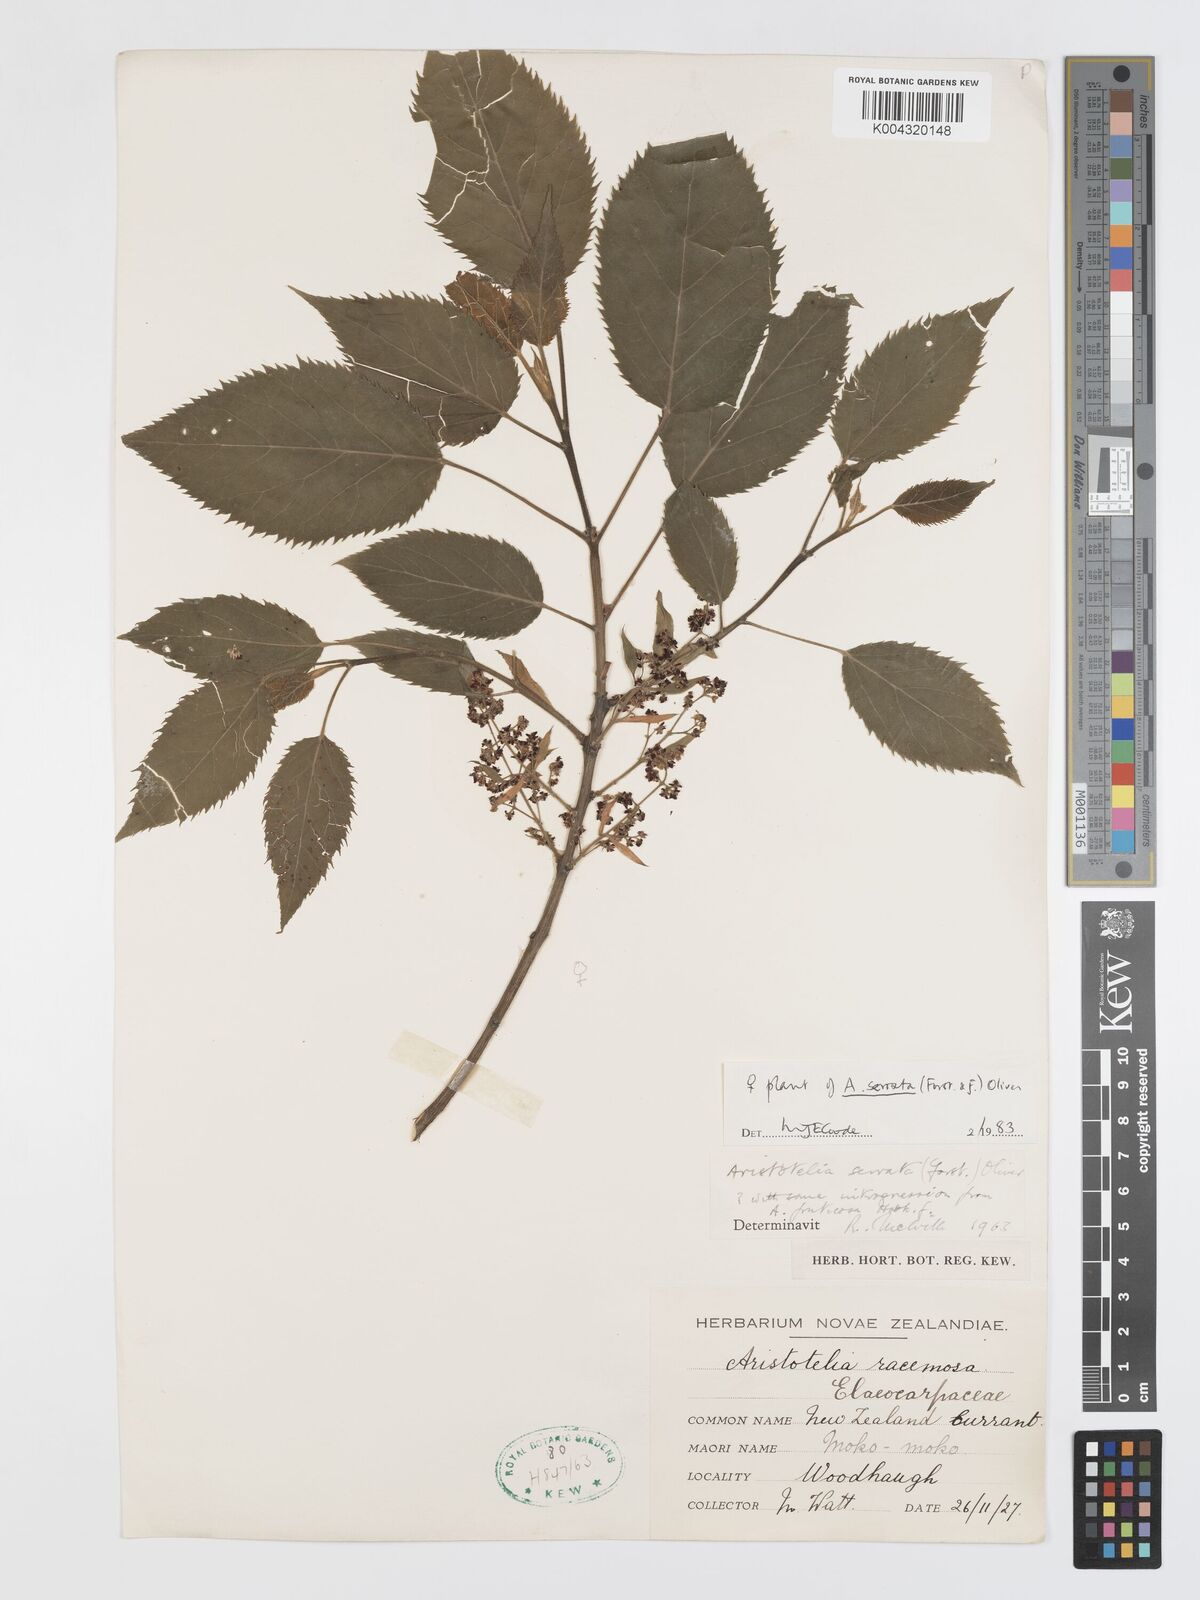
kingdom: Plantae
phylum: Tracheophyta
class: Magnoliopsida
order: Oxalidales
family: Elaeocarpaceae
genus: Aristotelia
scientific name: Aristotelia serrata
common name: New zealand wineberry
